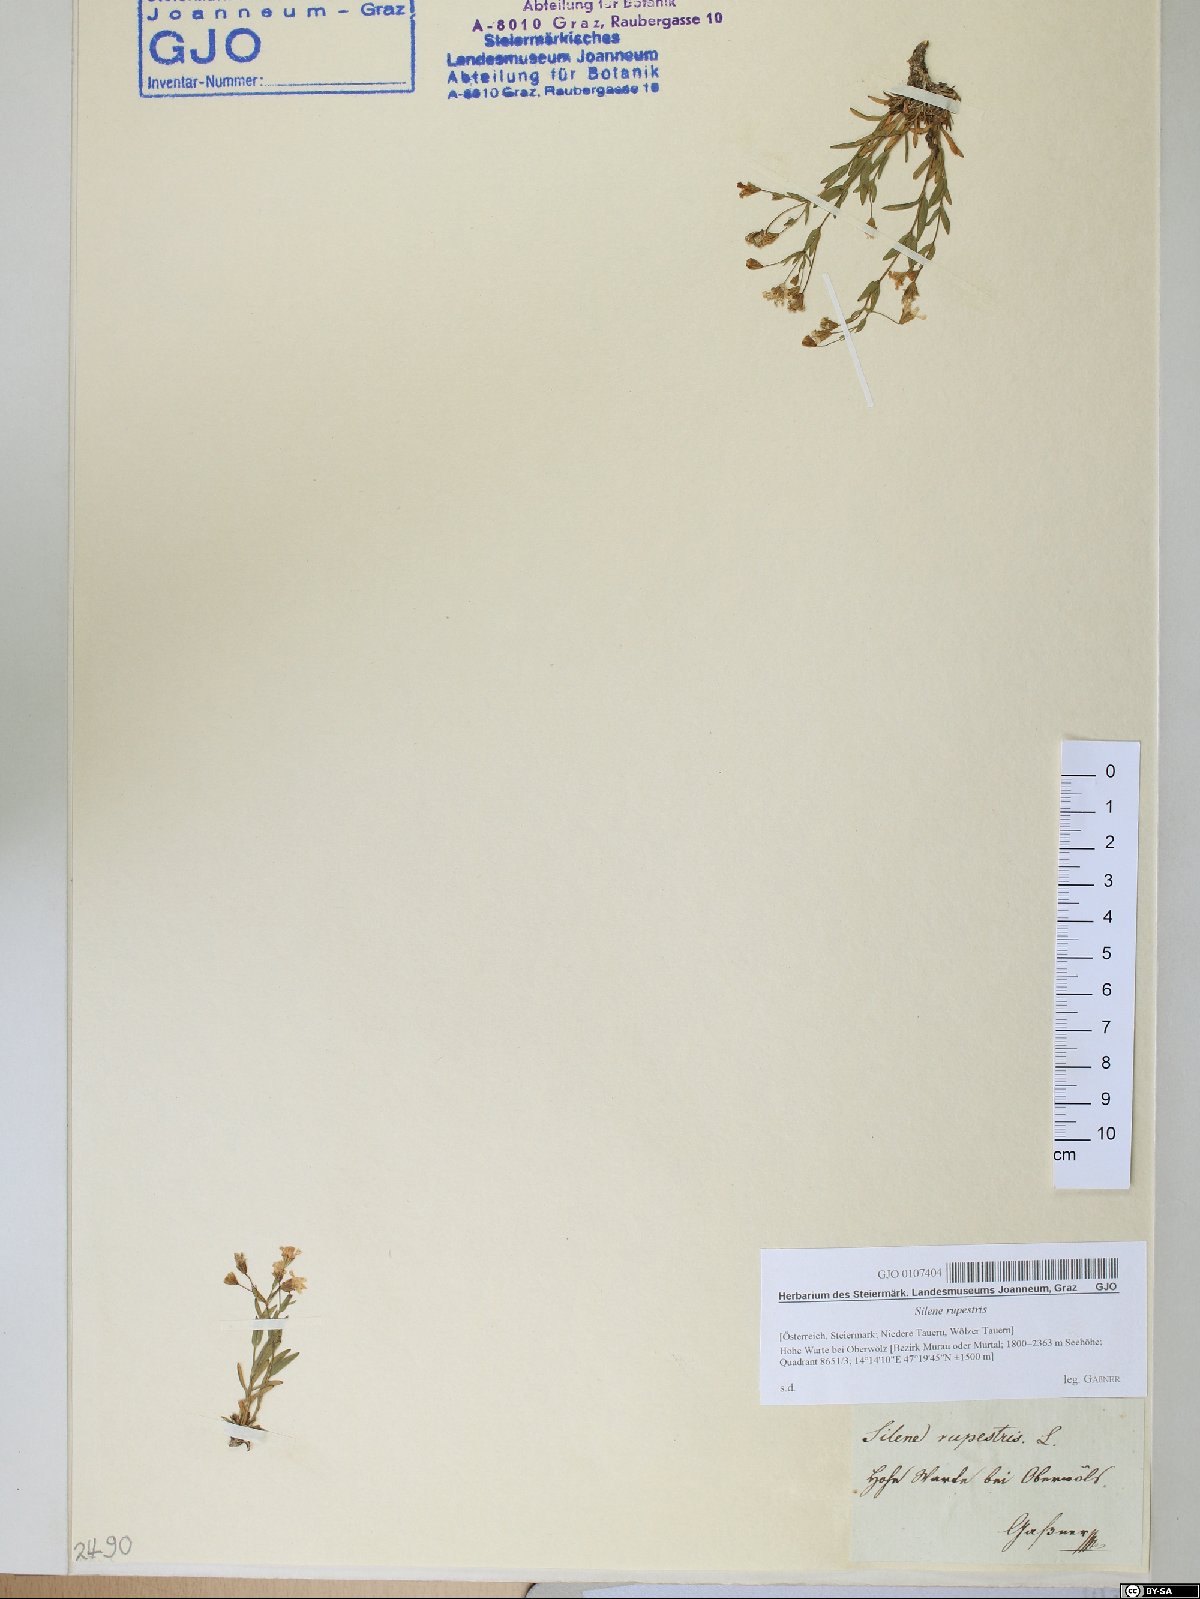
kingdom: Plantae
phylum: Tracheophyta
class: Magnoliopsida
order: Caryophyllales
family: Caryophyllaceae
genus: Atocion
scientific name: Atocion rupestre
